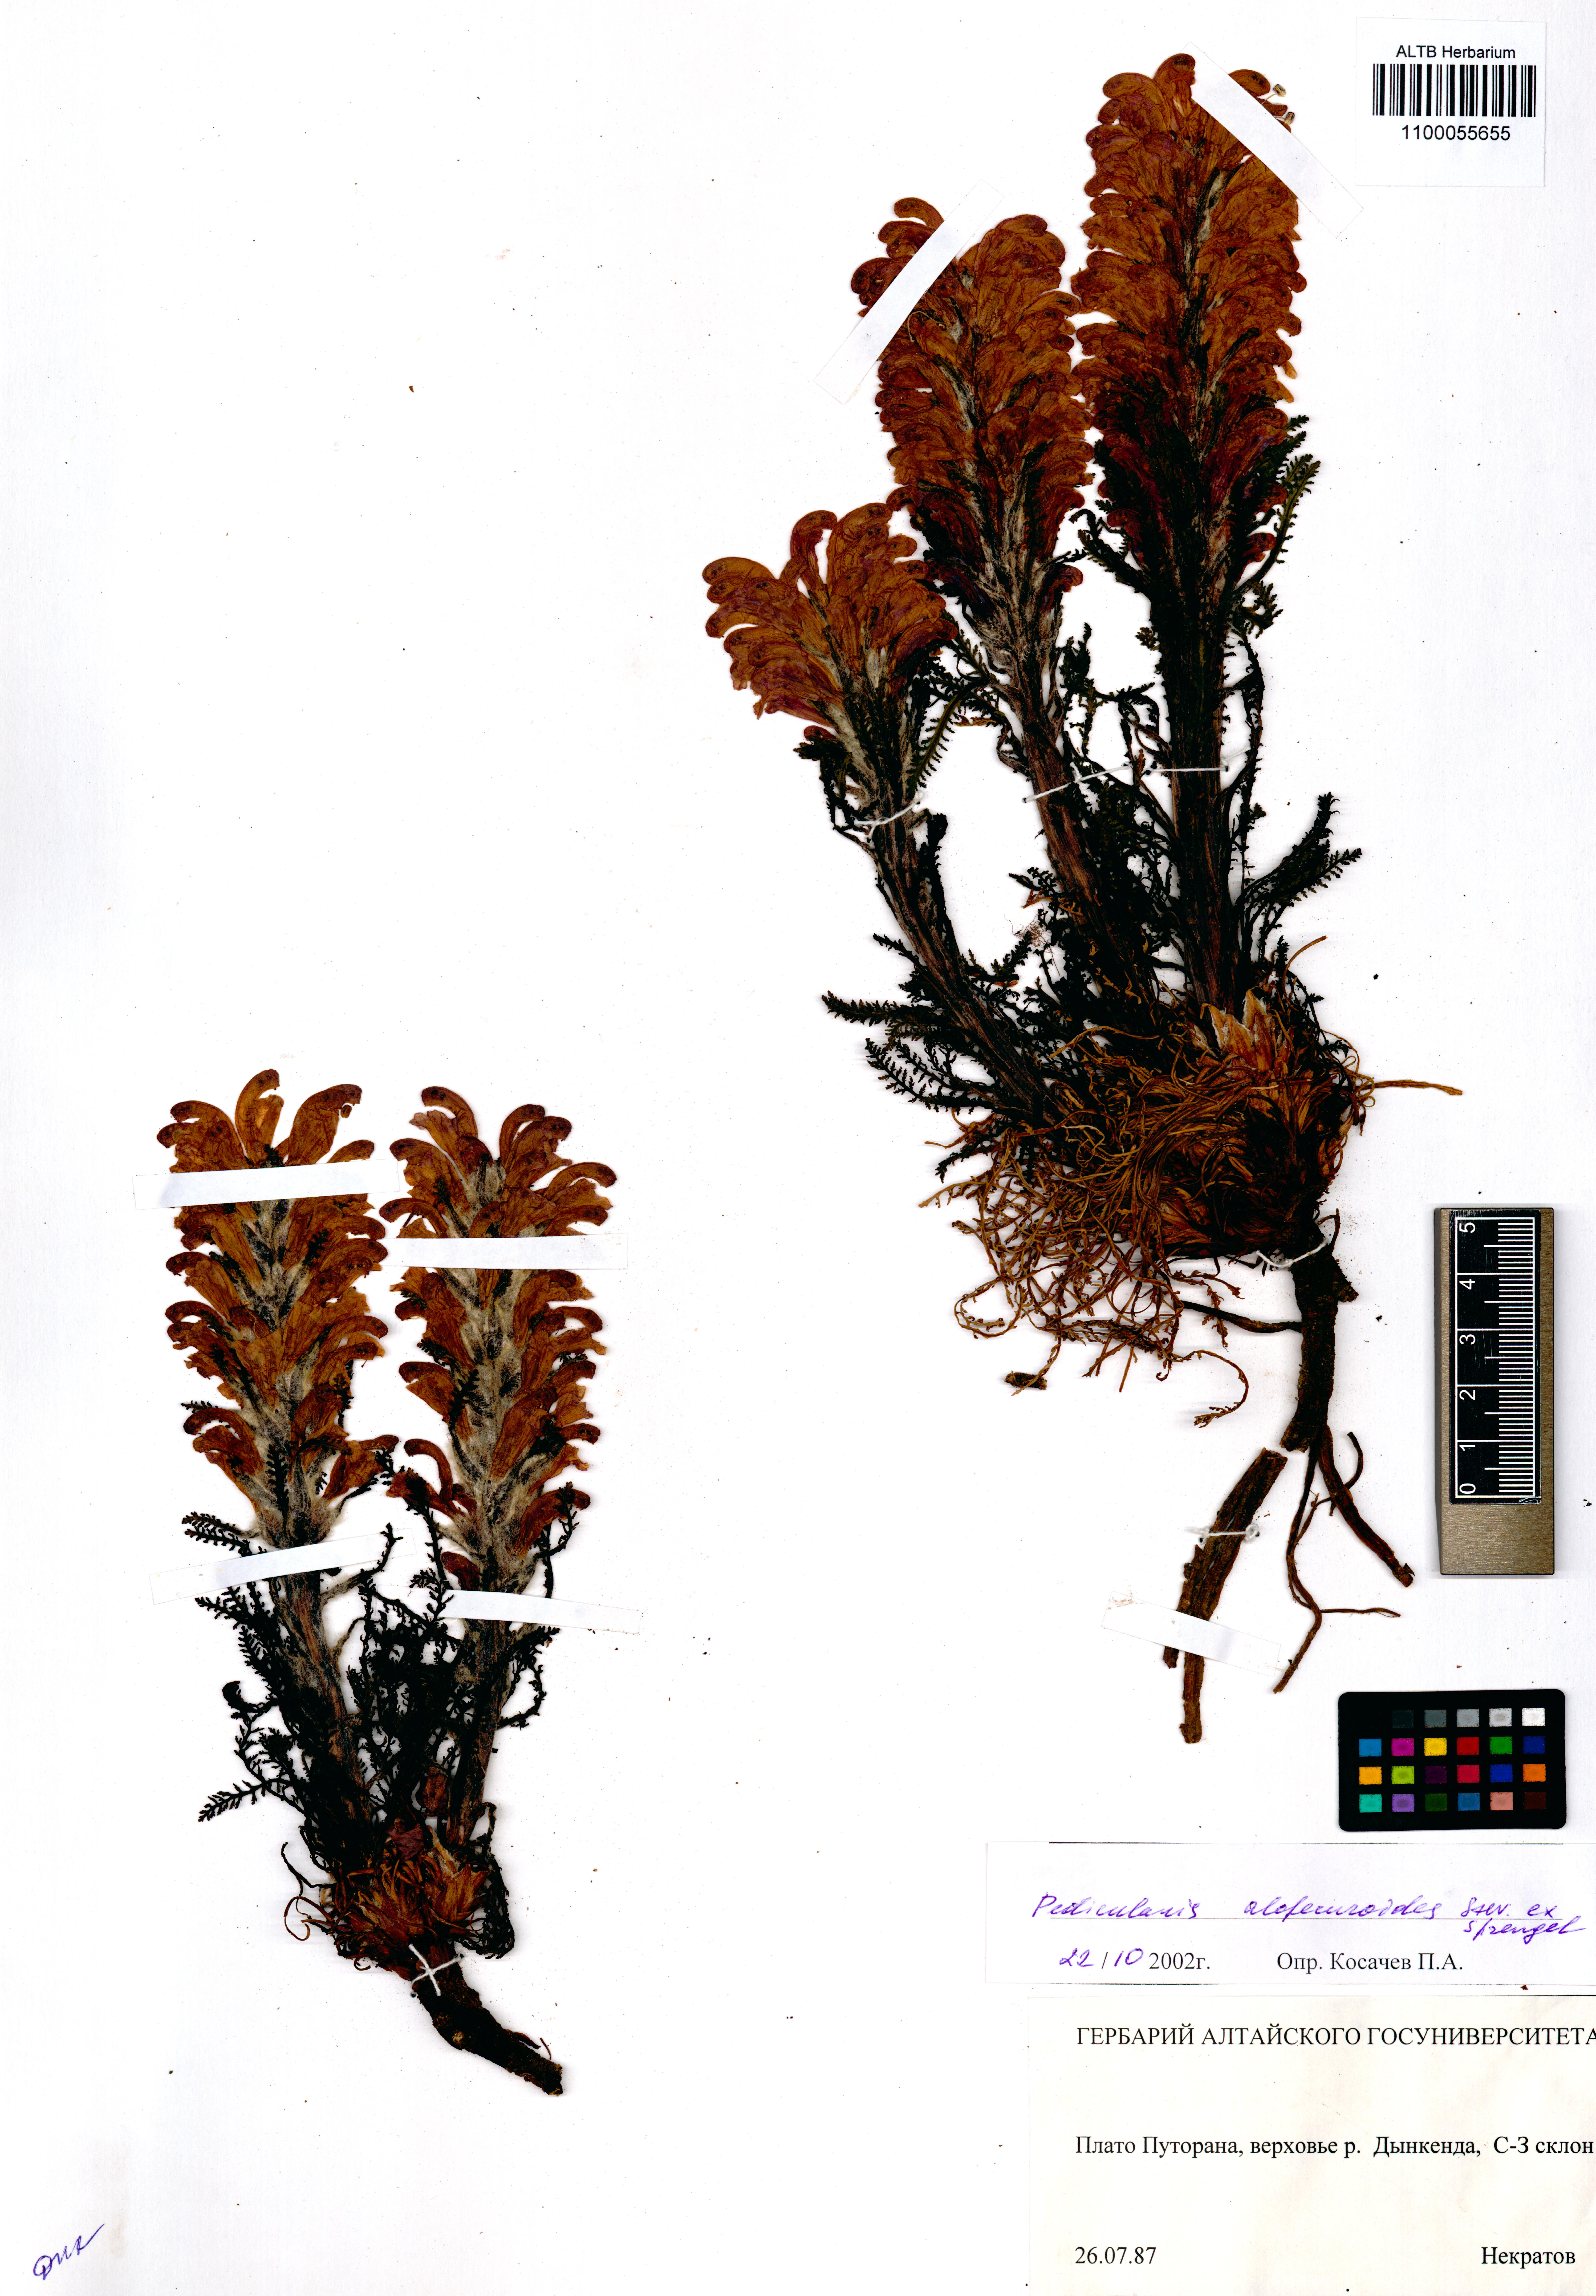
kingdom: Plantae
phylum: Tracheophyta
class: Magnoliopsida
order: Lamiales
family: Orobanchaceae
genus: Pedicularis
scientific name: Pedicularis alopecuroides
